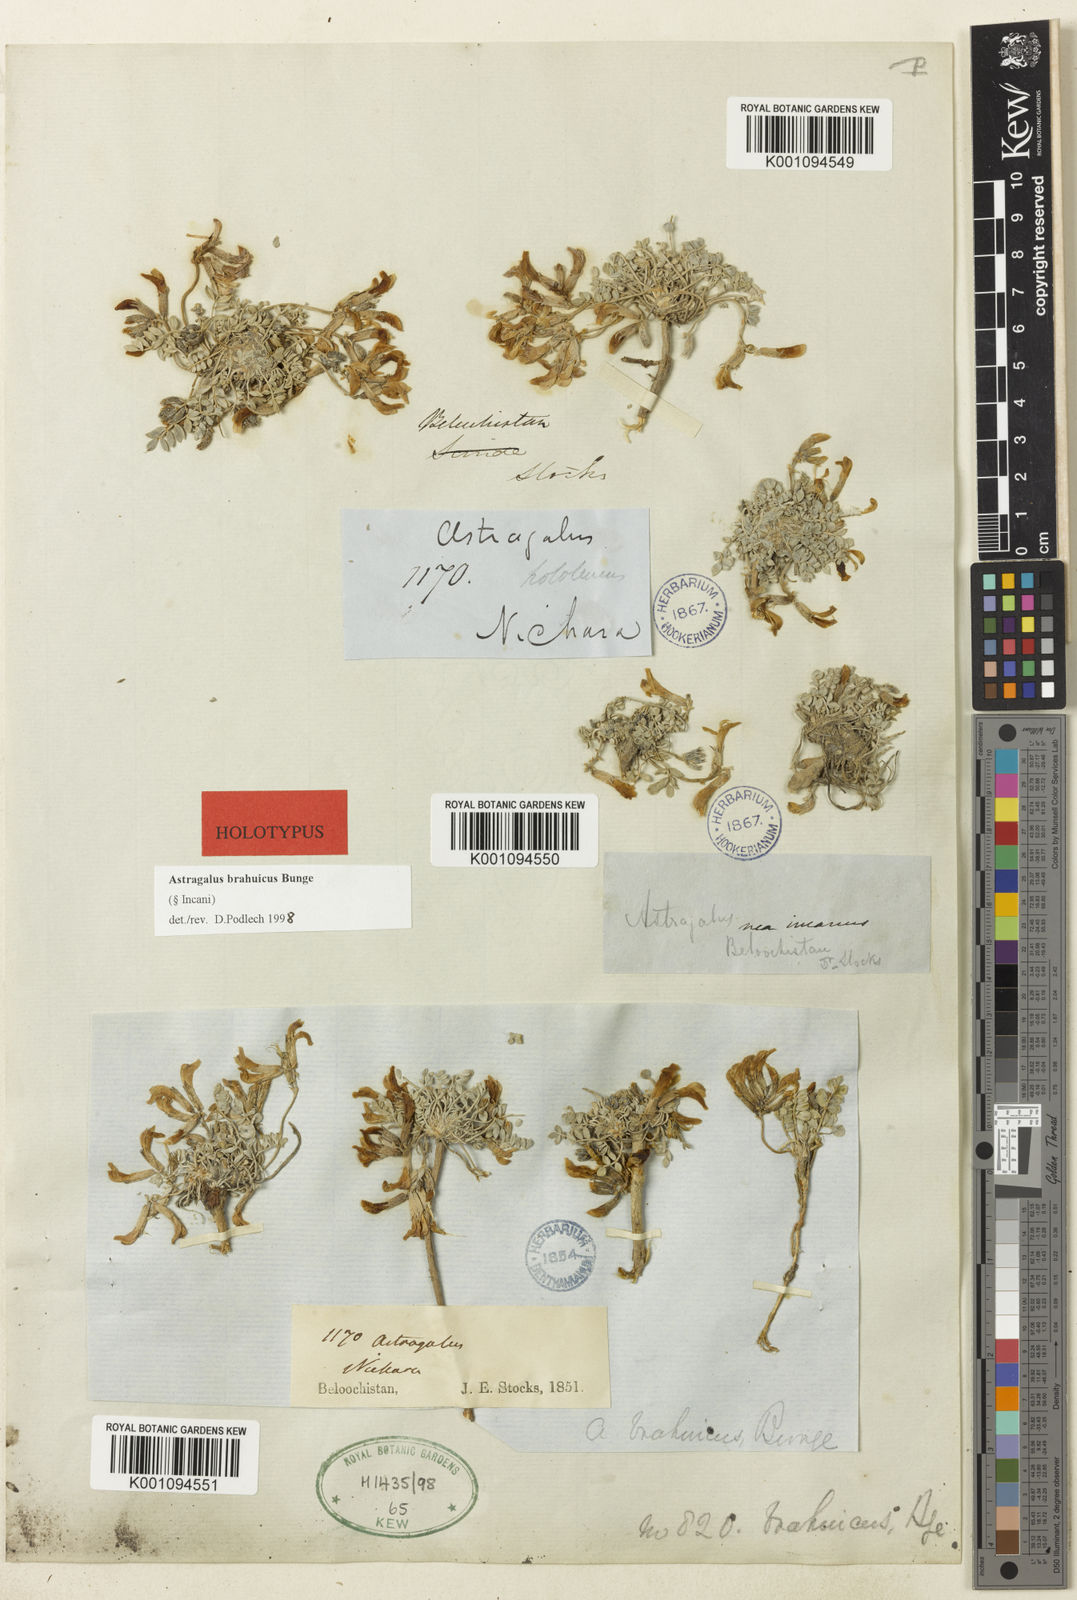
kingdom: Plantae
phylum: Tracheophyta
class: Magnoliopsida
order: Fabales
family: Fabaceae
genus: Astragalus
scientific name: Astragalus
